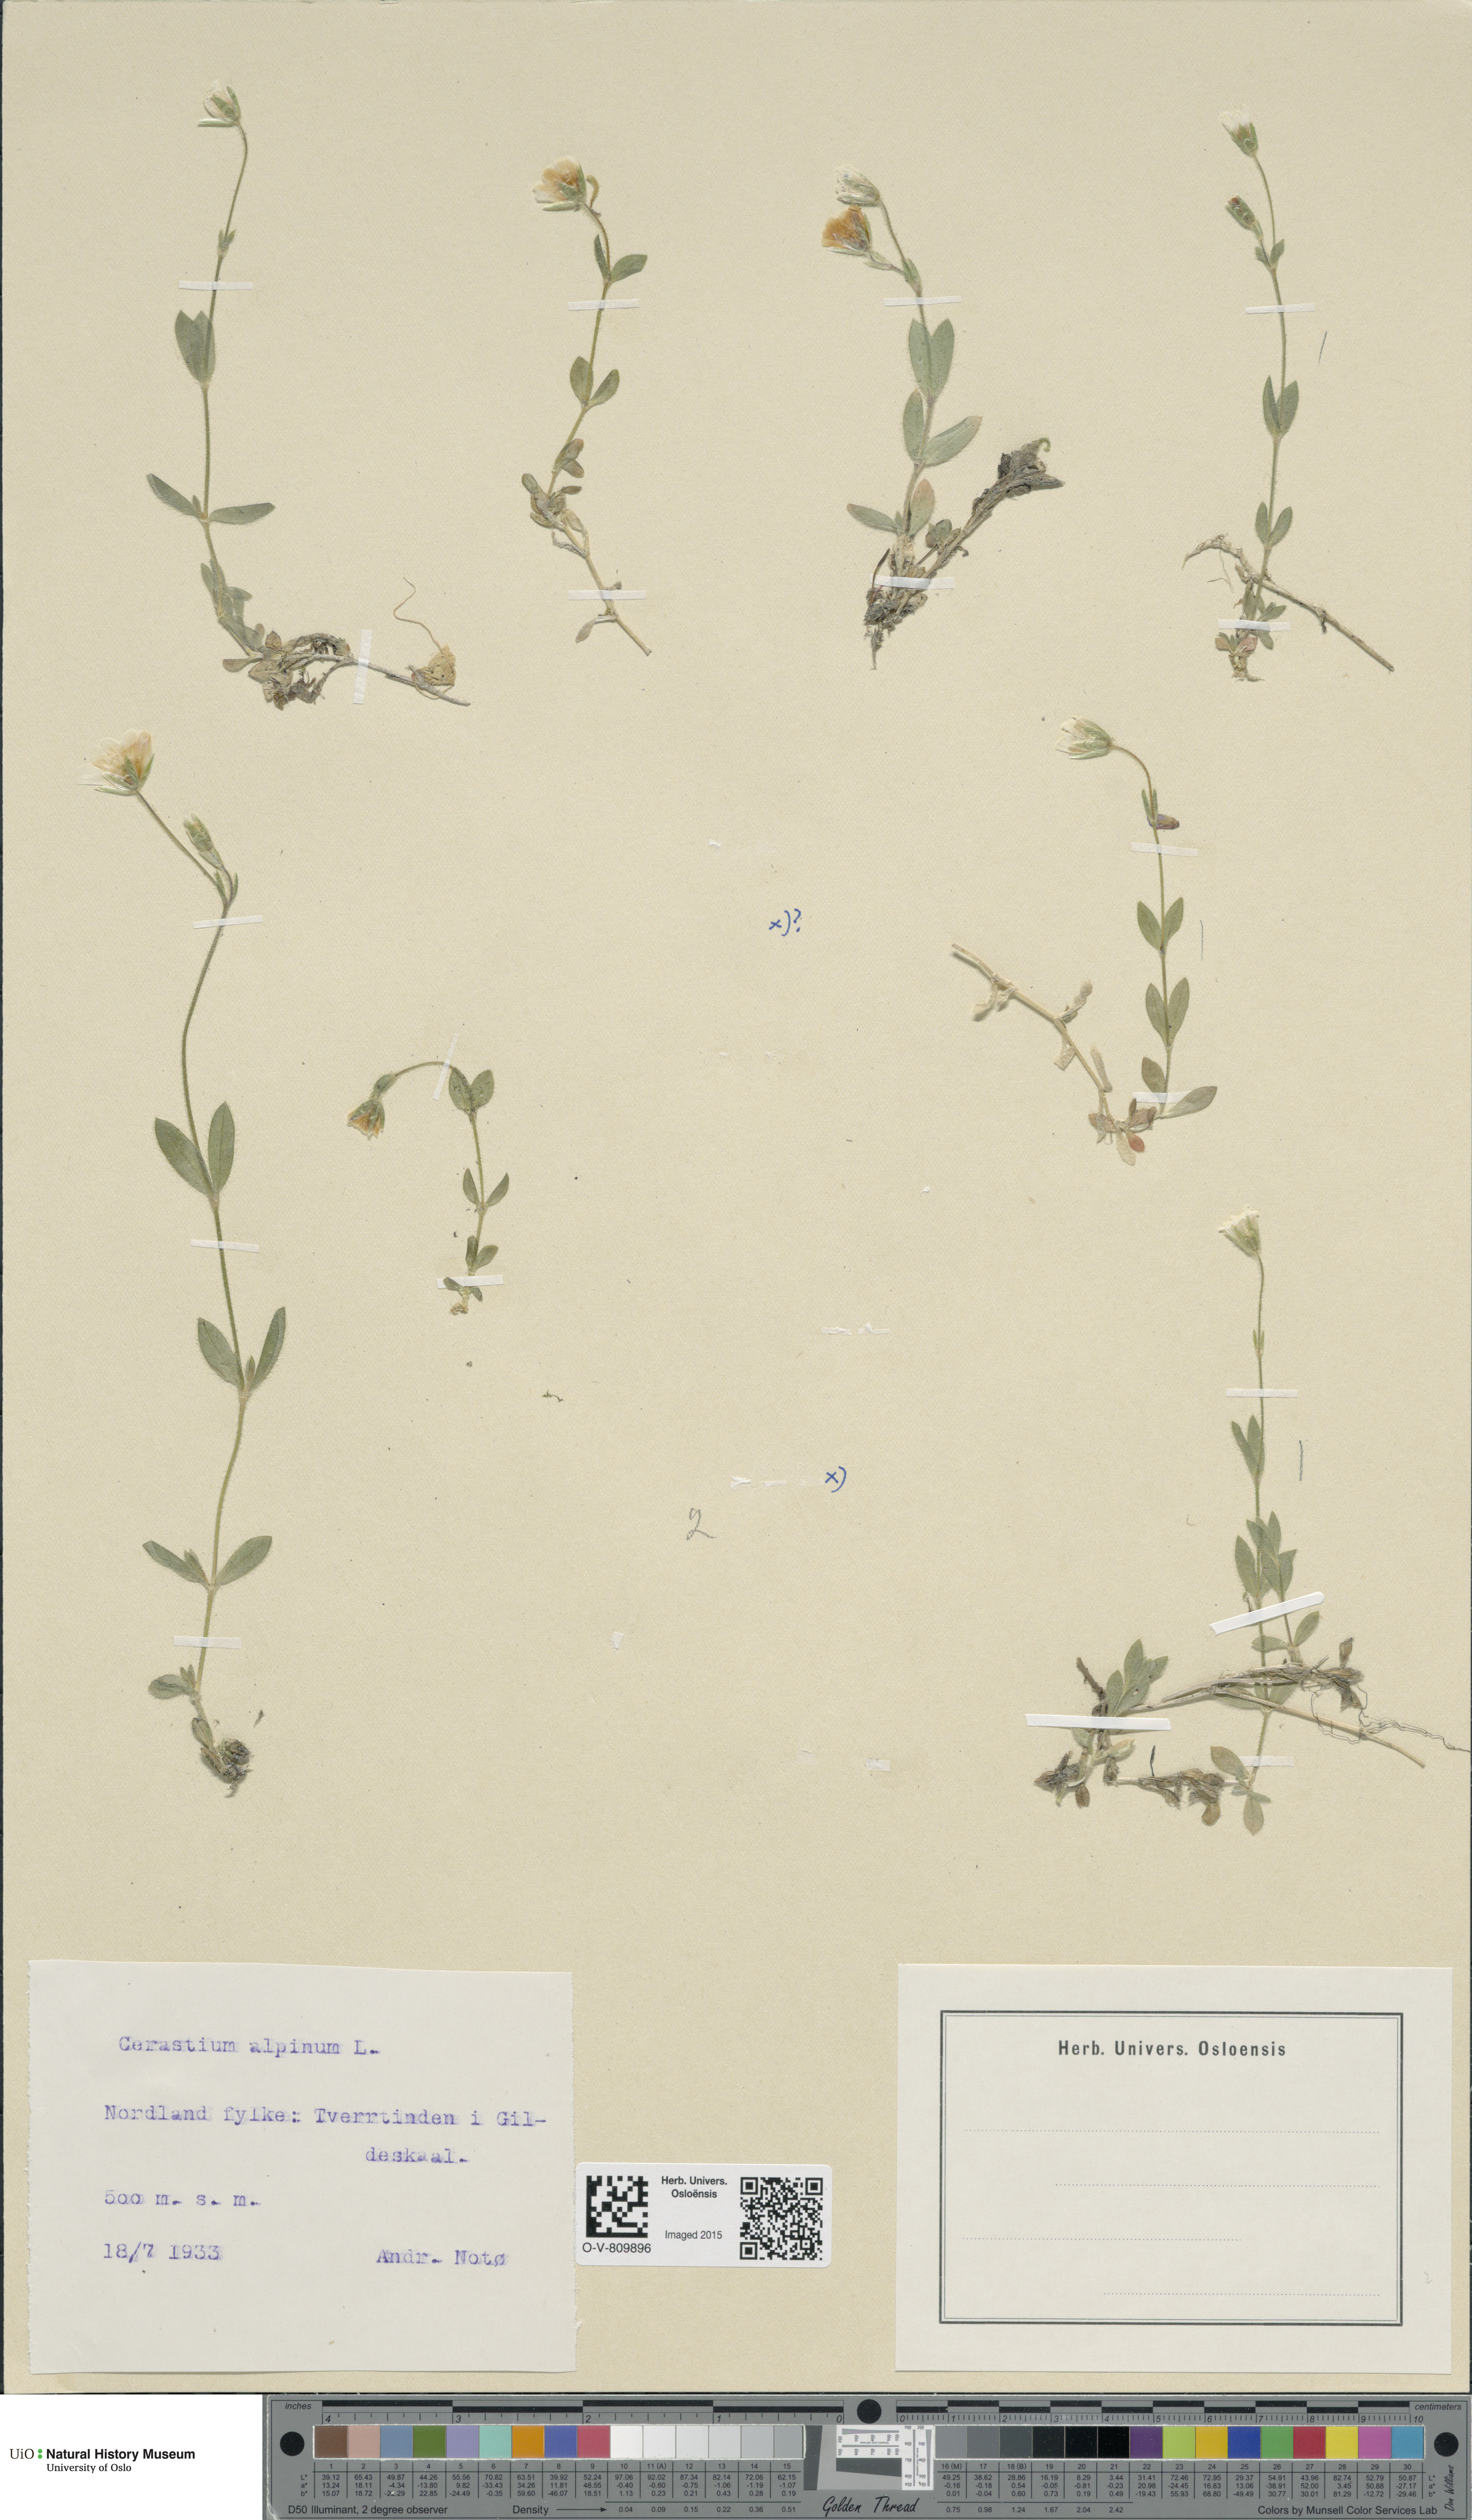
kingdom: Plantae
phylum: Tracheophyta
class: Magnoliopsida
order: Caryophyllales
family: Caryophyllaceae
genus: Cerastium
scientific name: Cerastium alpinum
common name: Alpine mouse-ear
